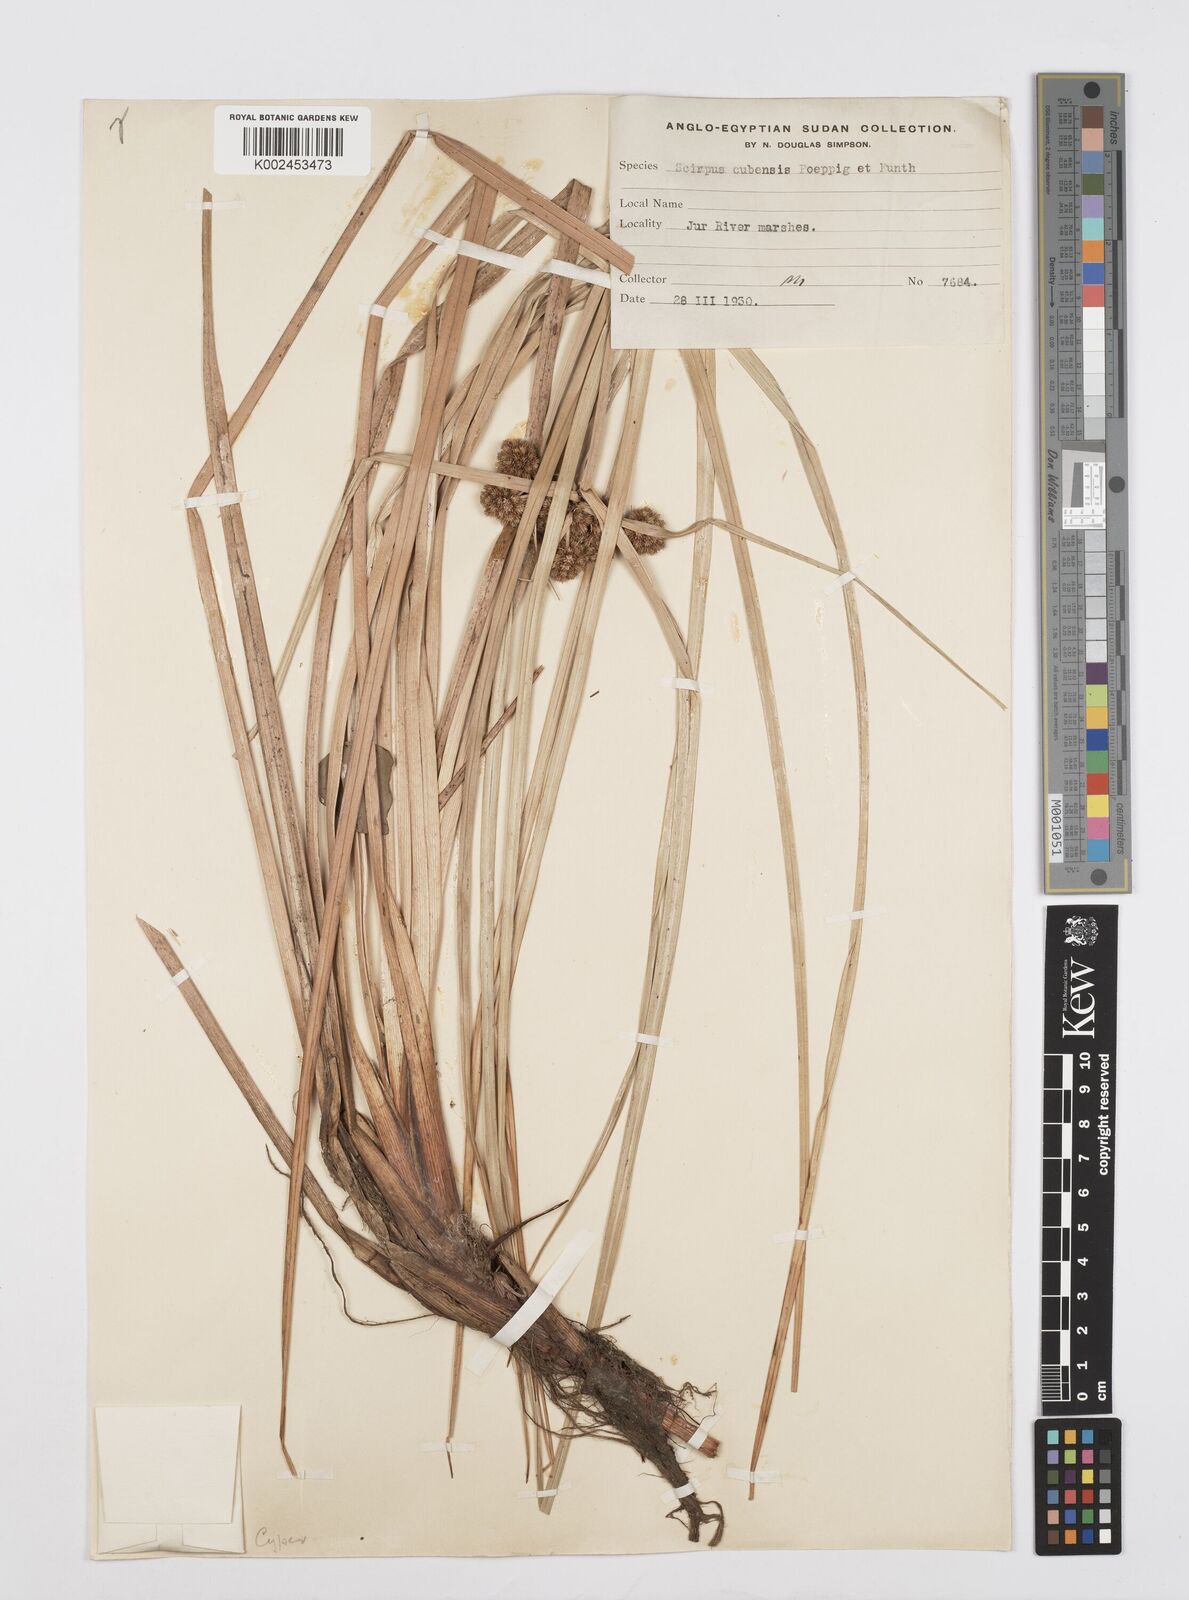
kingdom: Plantae
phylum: Tracheophyta
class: Liliopsida
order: Poales
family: Cyperaceae
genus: Cyperus
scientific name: Cyperus elegans
